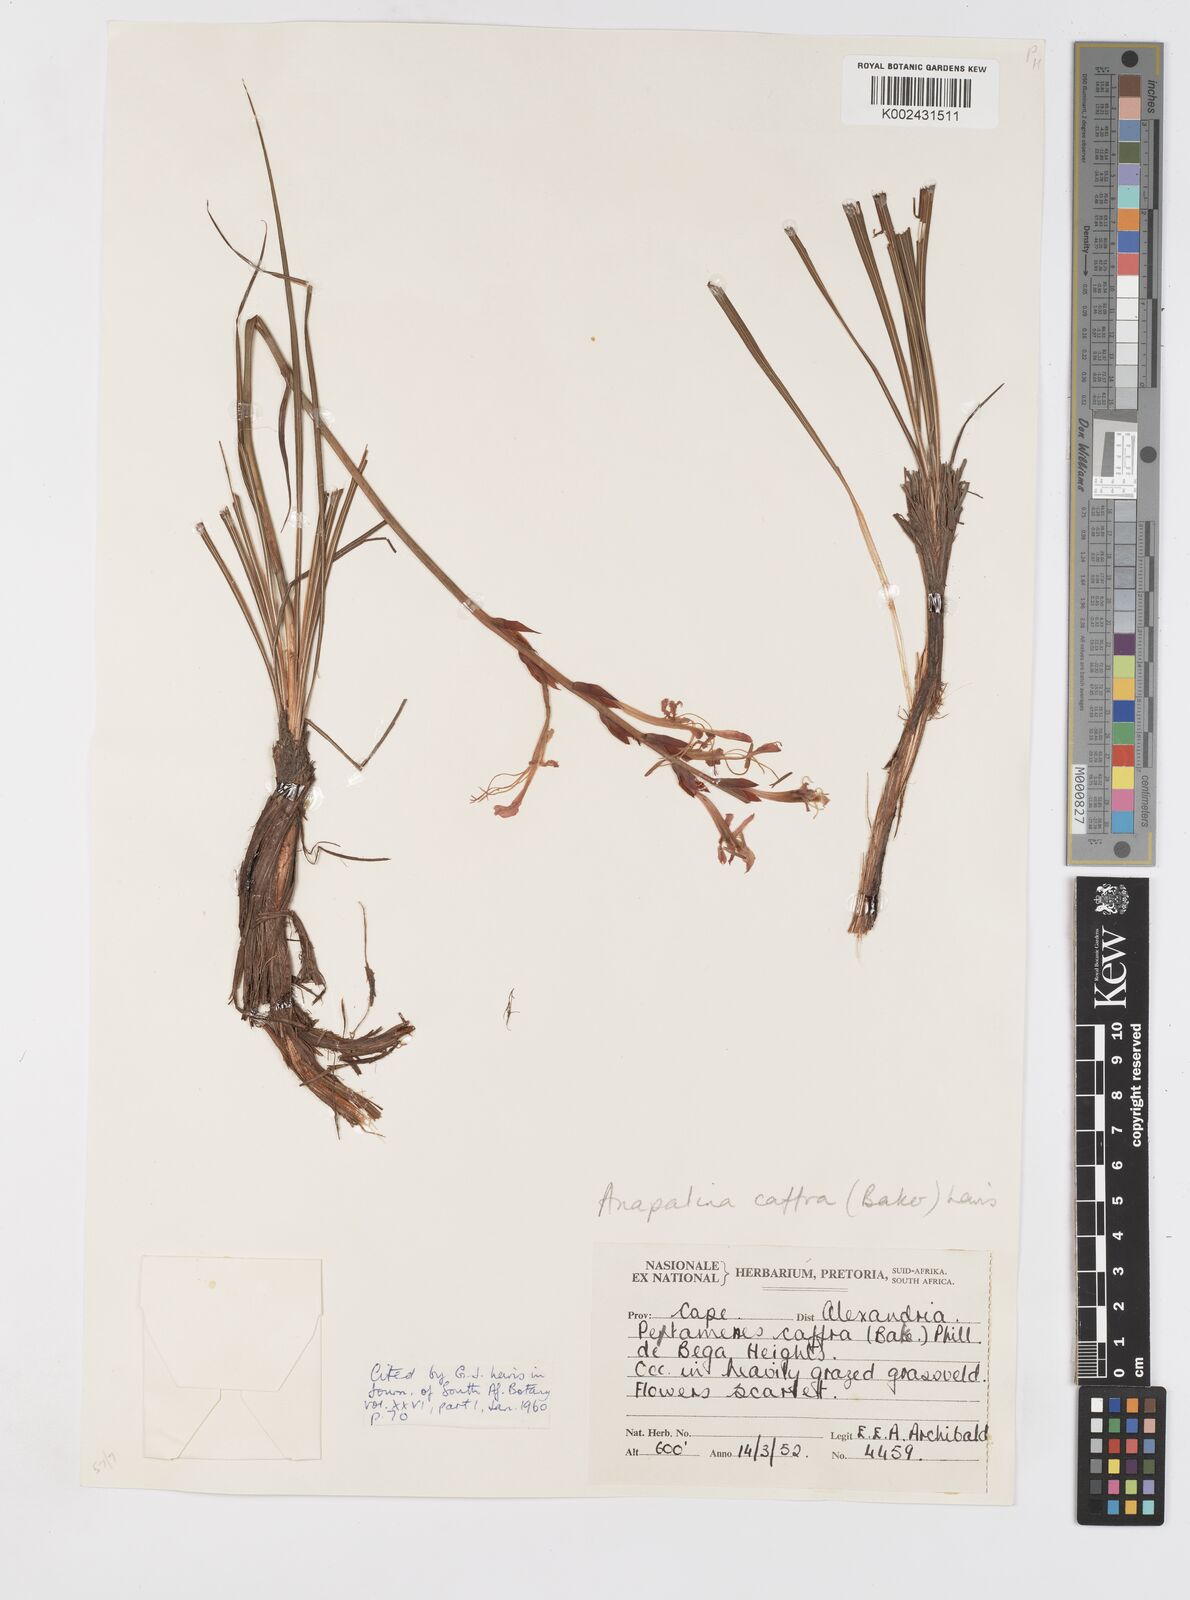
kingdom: Plantae
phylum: Tracheophyta
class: Liliopsida
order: Asparagales
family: Iridaceae
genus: Tritoniopsis
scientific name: Tritoniopsis caffra
